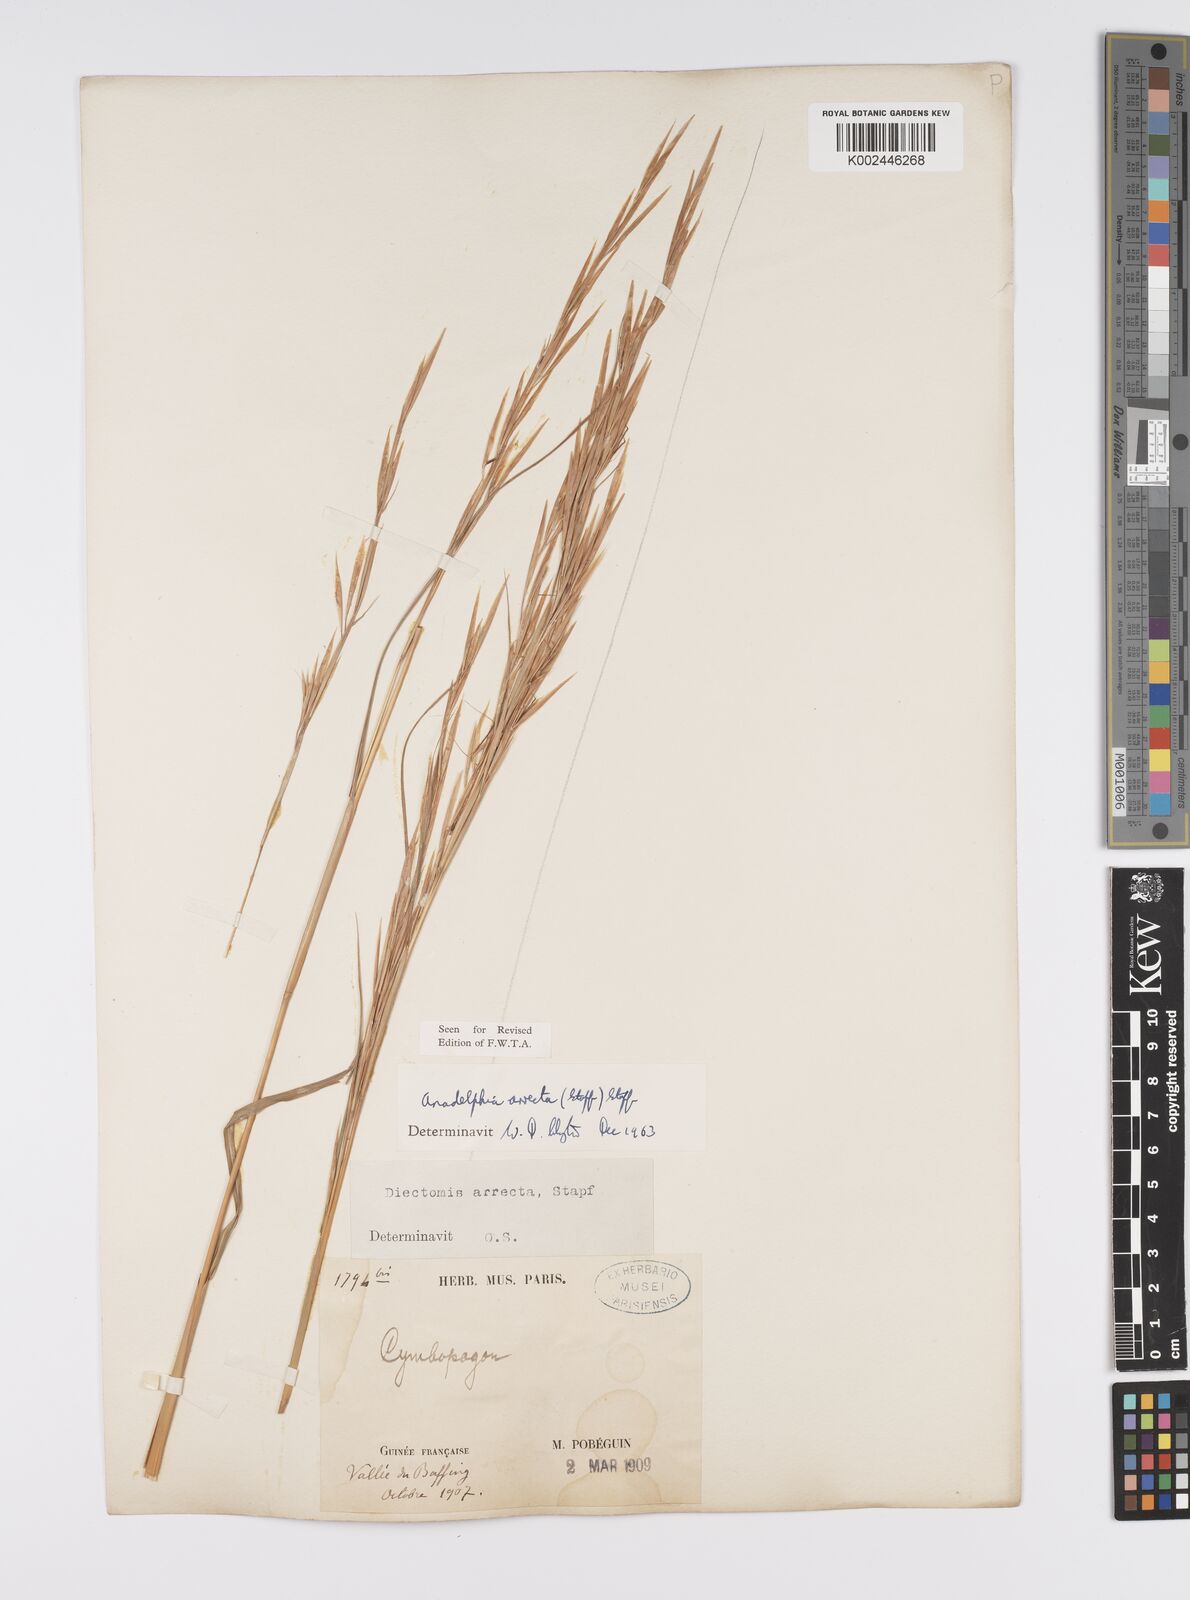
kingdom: Plantae
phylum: Tracheophyta
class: Liliopsida
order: Poales
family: Poaceae
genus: Anadelphia
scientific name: Anadelphia afzeliana
